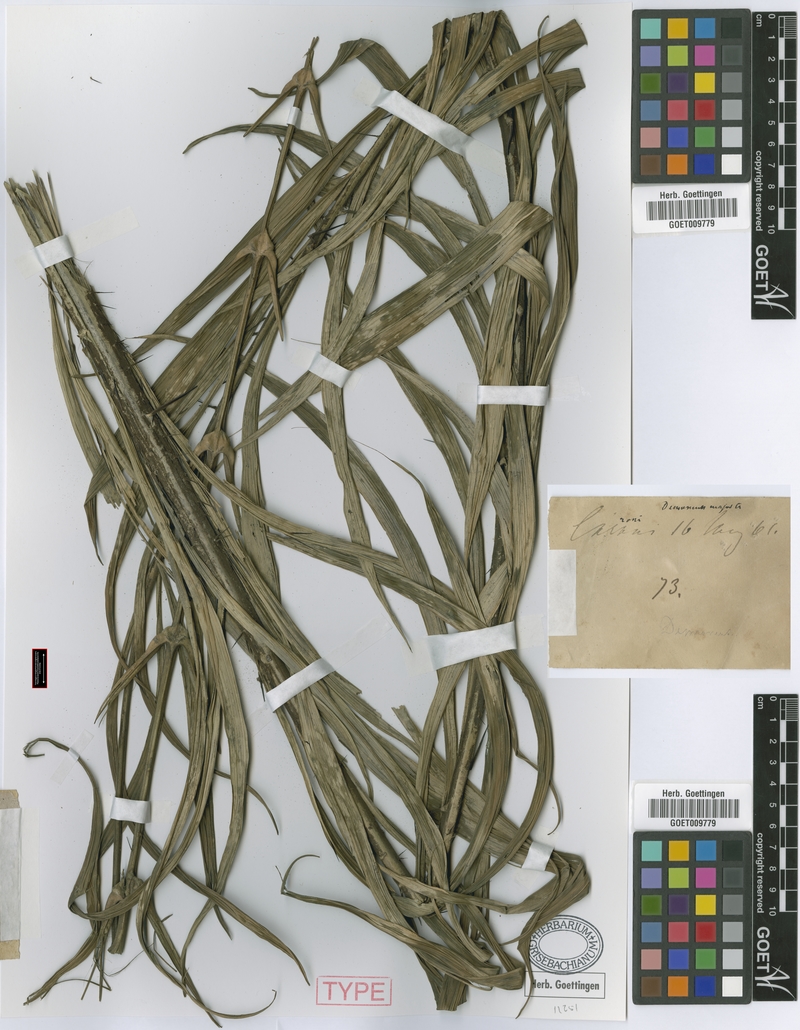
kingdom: Plantae
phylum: Tracheophyta
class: Liliopsida
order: Arecales
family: Arecaceae
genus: Desmoncus
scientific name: Desmoncus orthacanthos
